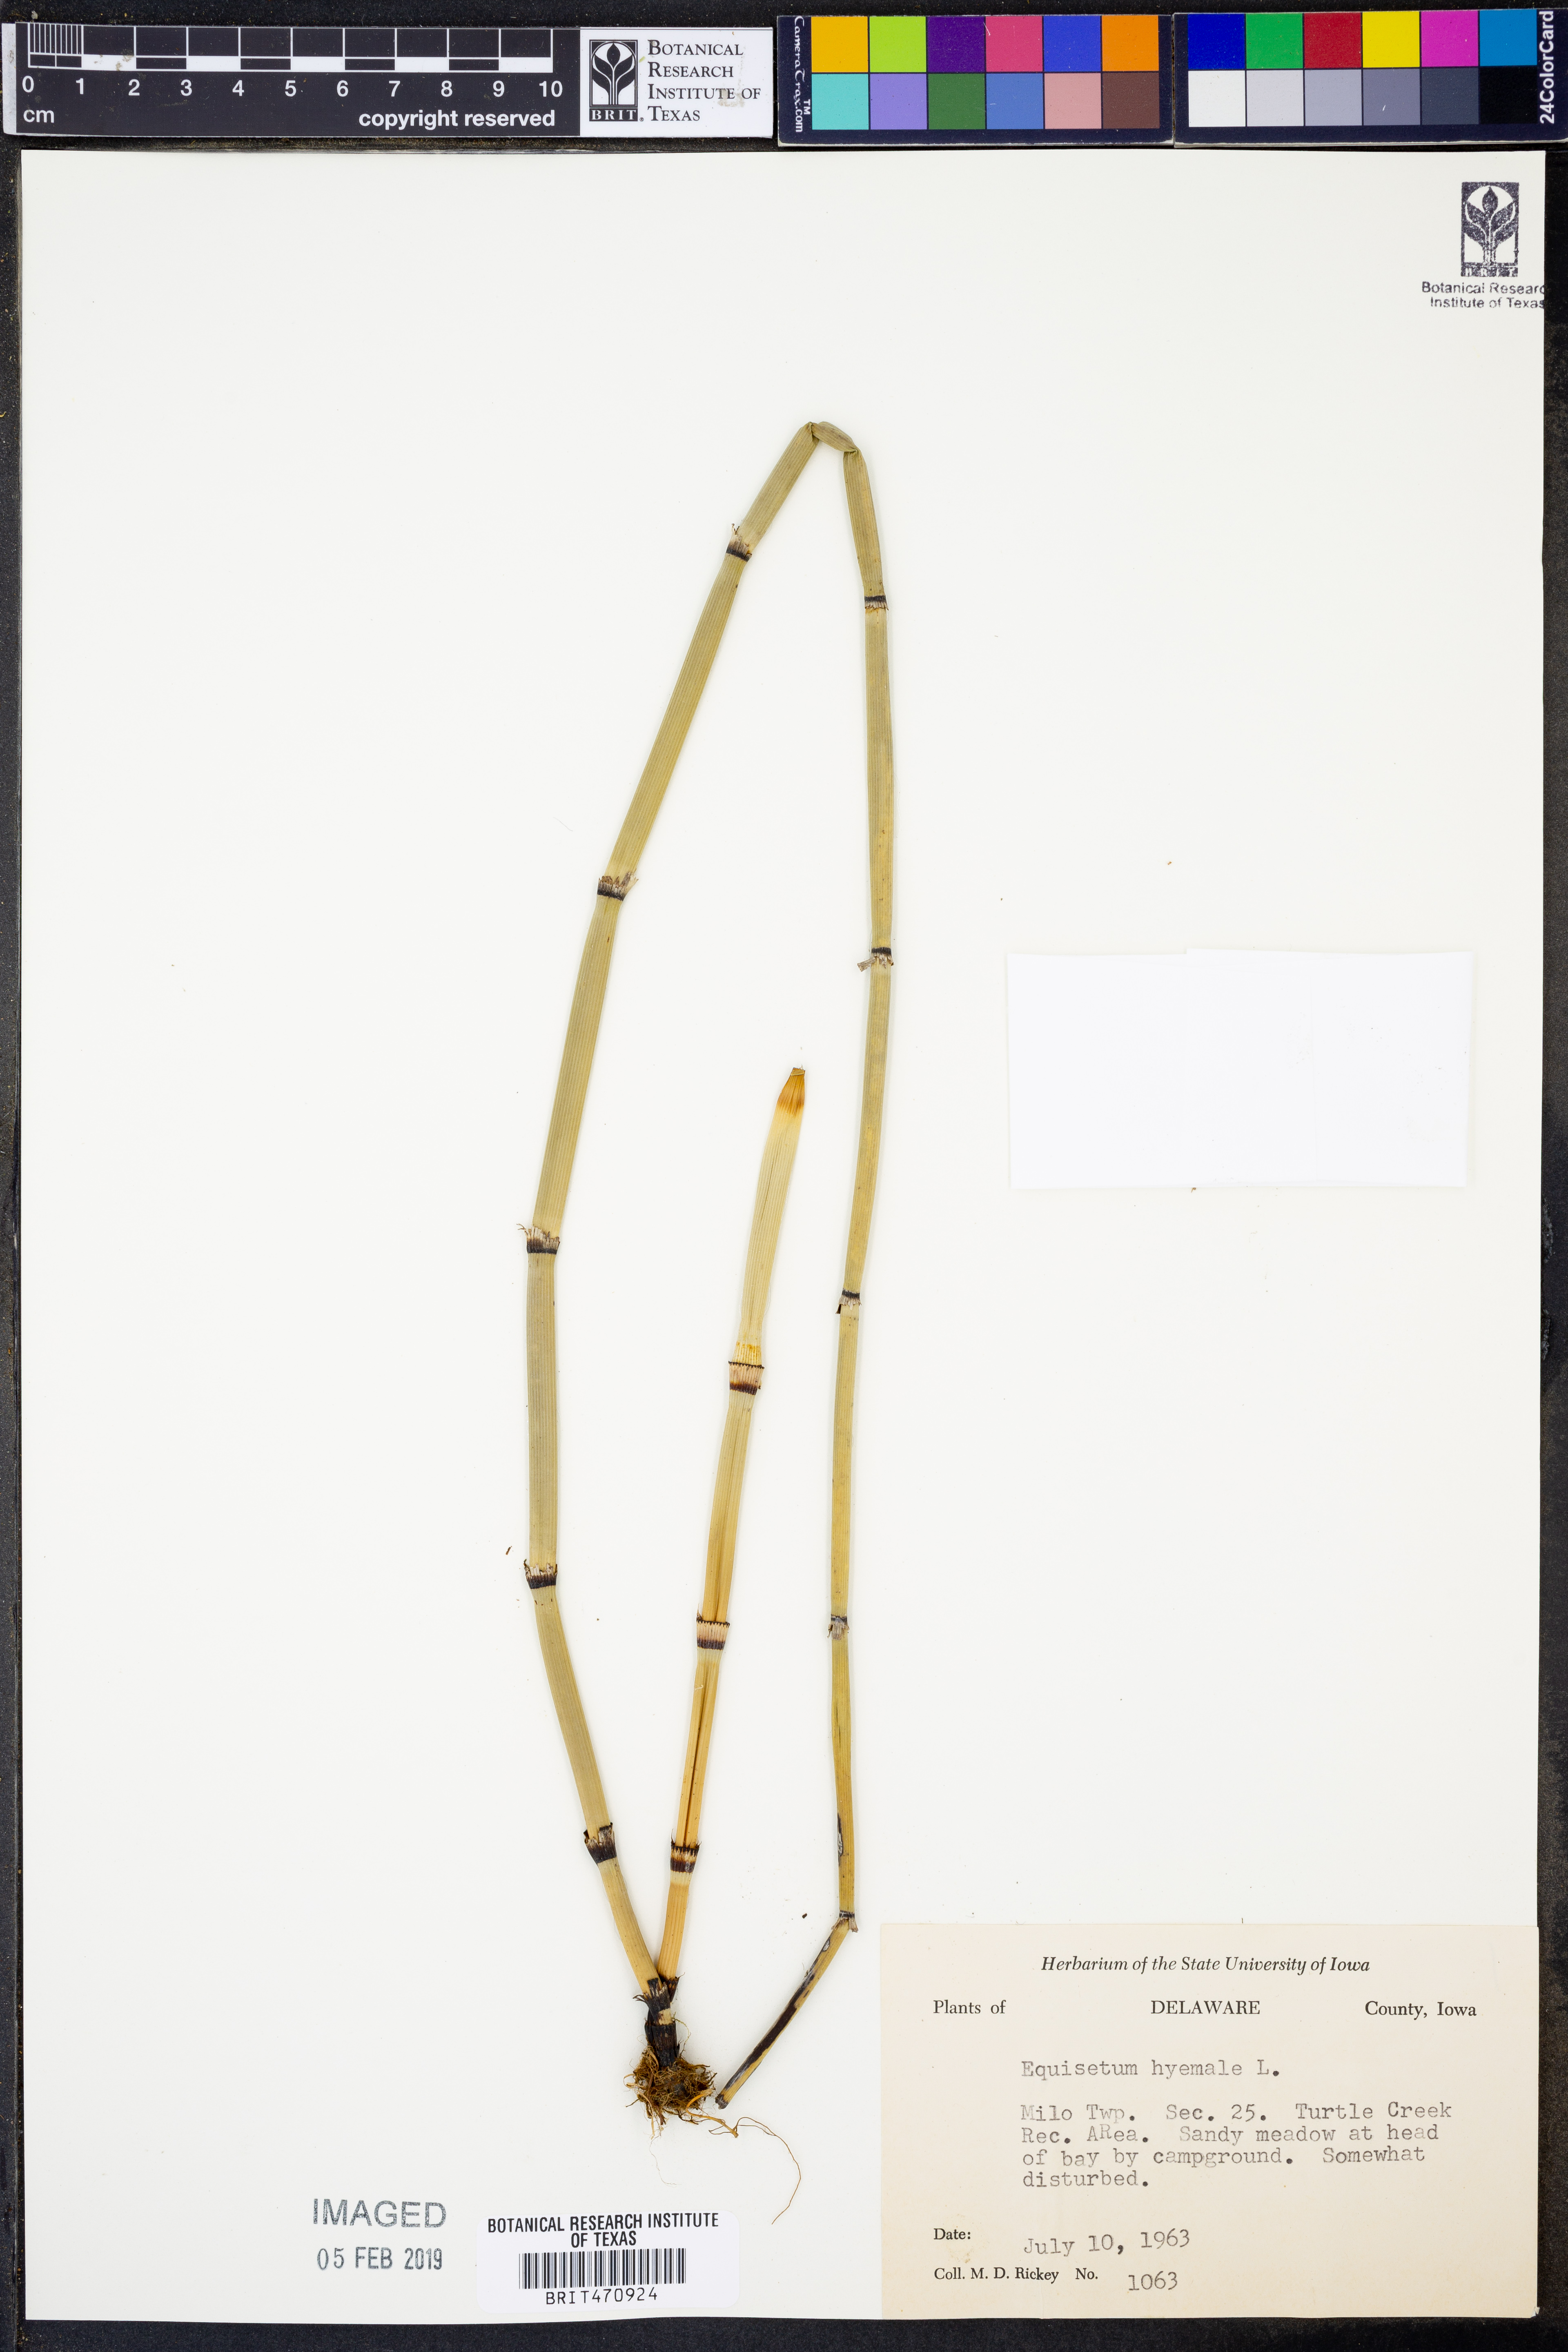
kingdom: Plantae
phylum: Tracheophyta
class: Polypodiopsida
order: Equisetales
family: Equisetaceae
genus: Equisetum
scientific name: Equisetum hyemale
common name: Rough horsetail
